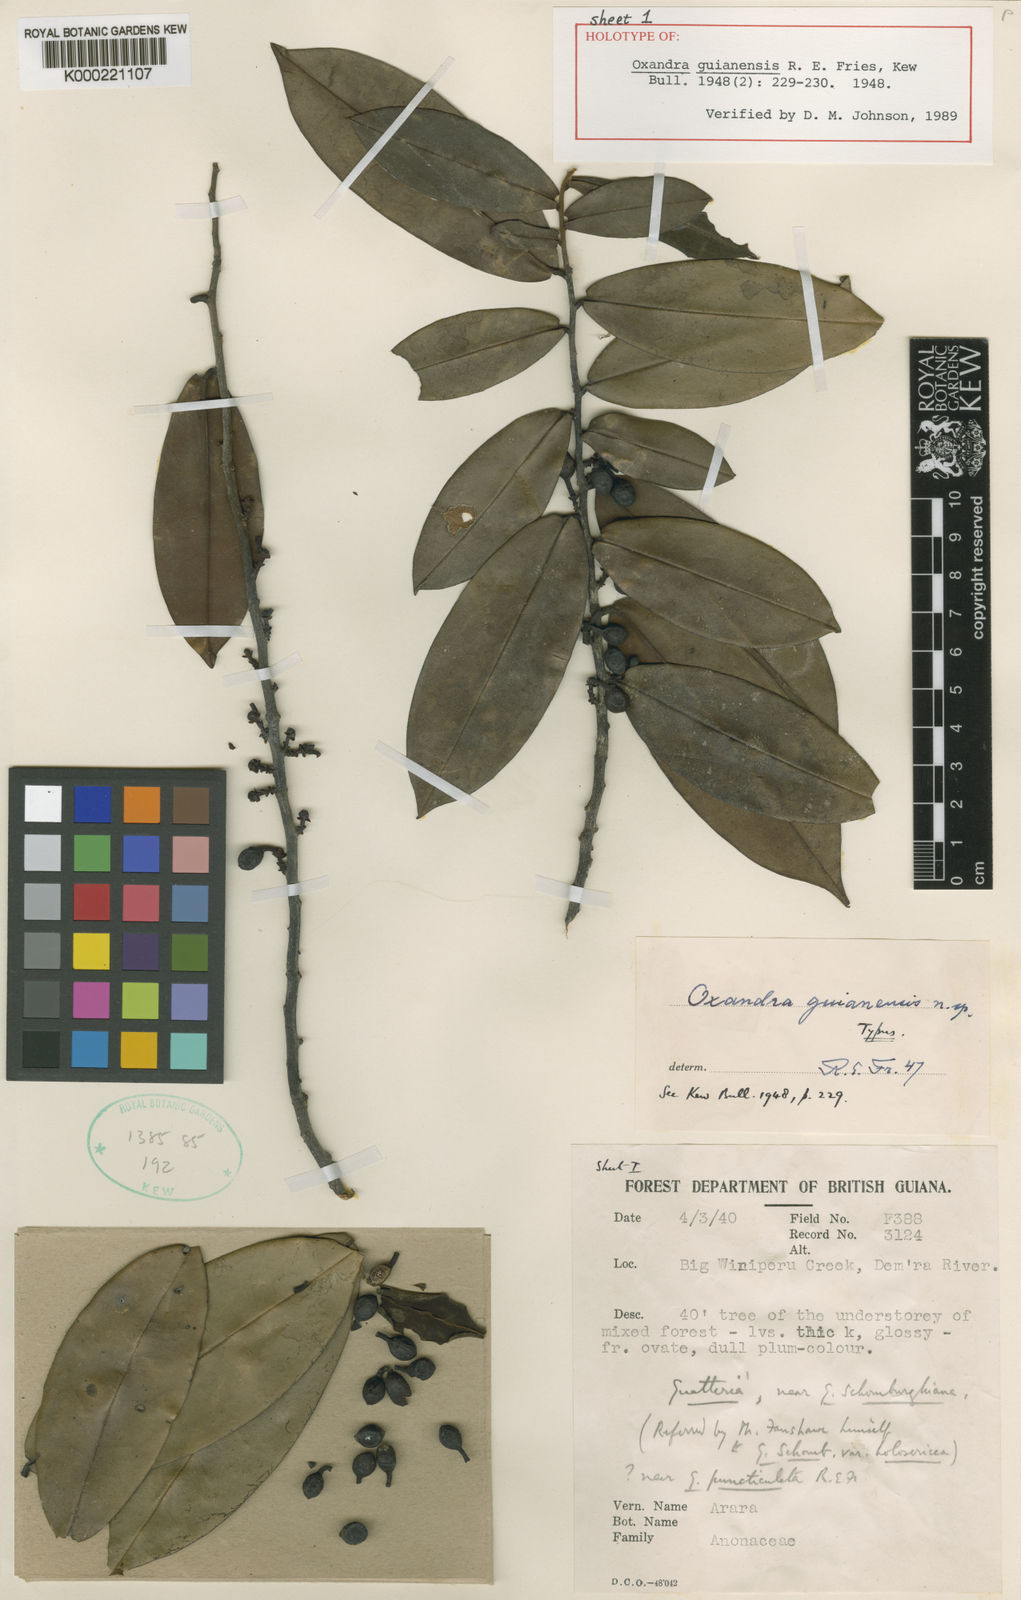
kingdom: Plantae
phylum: Tracheophyta
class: Magnoliopsida
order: Magnoliales
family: Annonaceae
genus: Oxandra
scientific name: Oxandra guianensis
